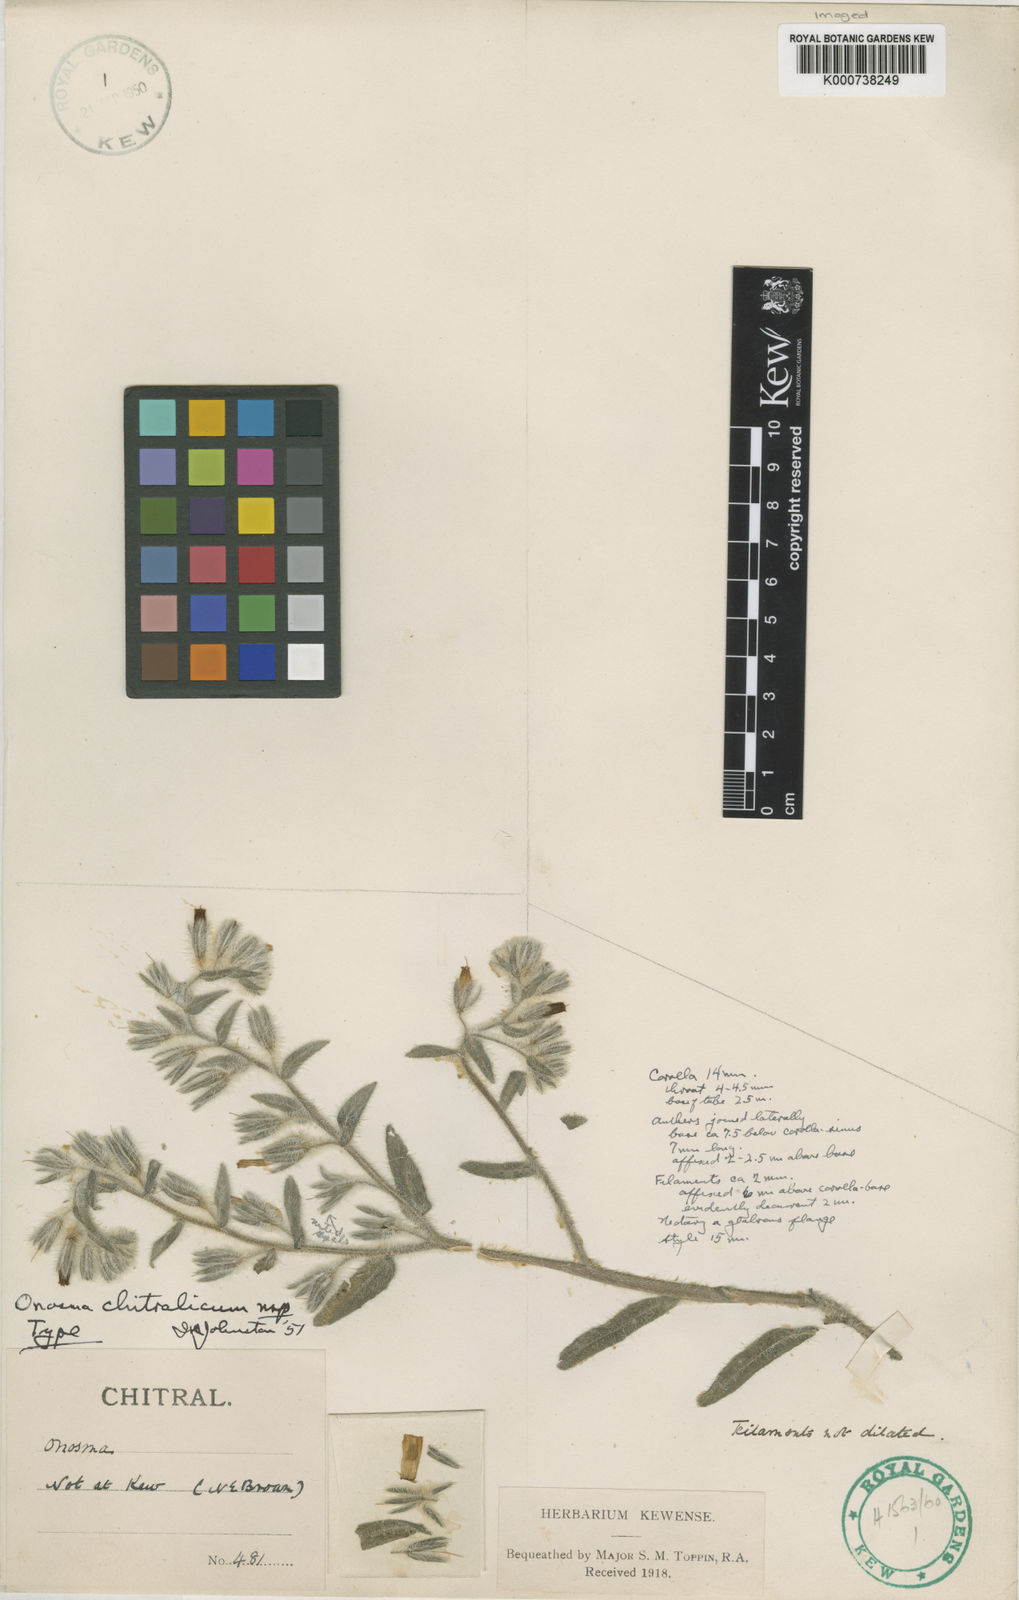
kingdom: Plantae
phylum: Tracheophyta
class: Magnoliopsida
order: Boraginales
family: Boraginaceae
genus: Onosma
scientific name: Onosma chitralica
